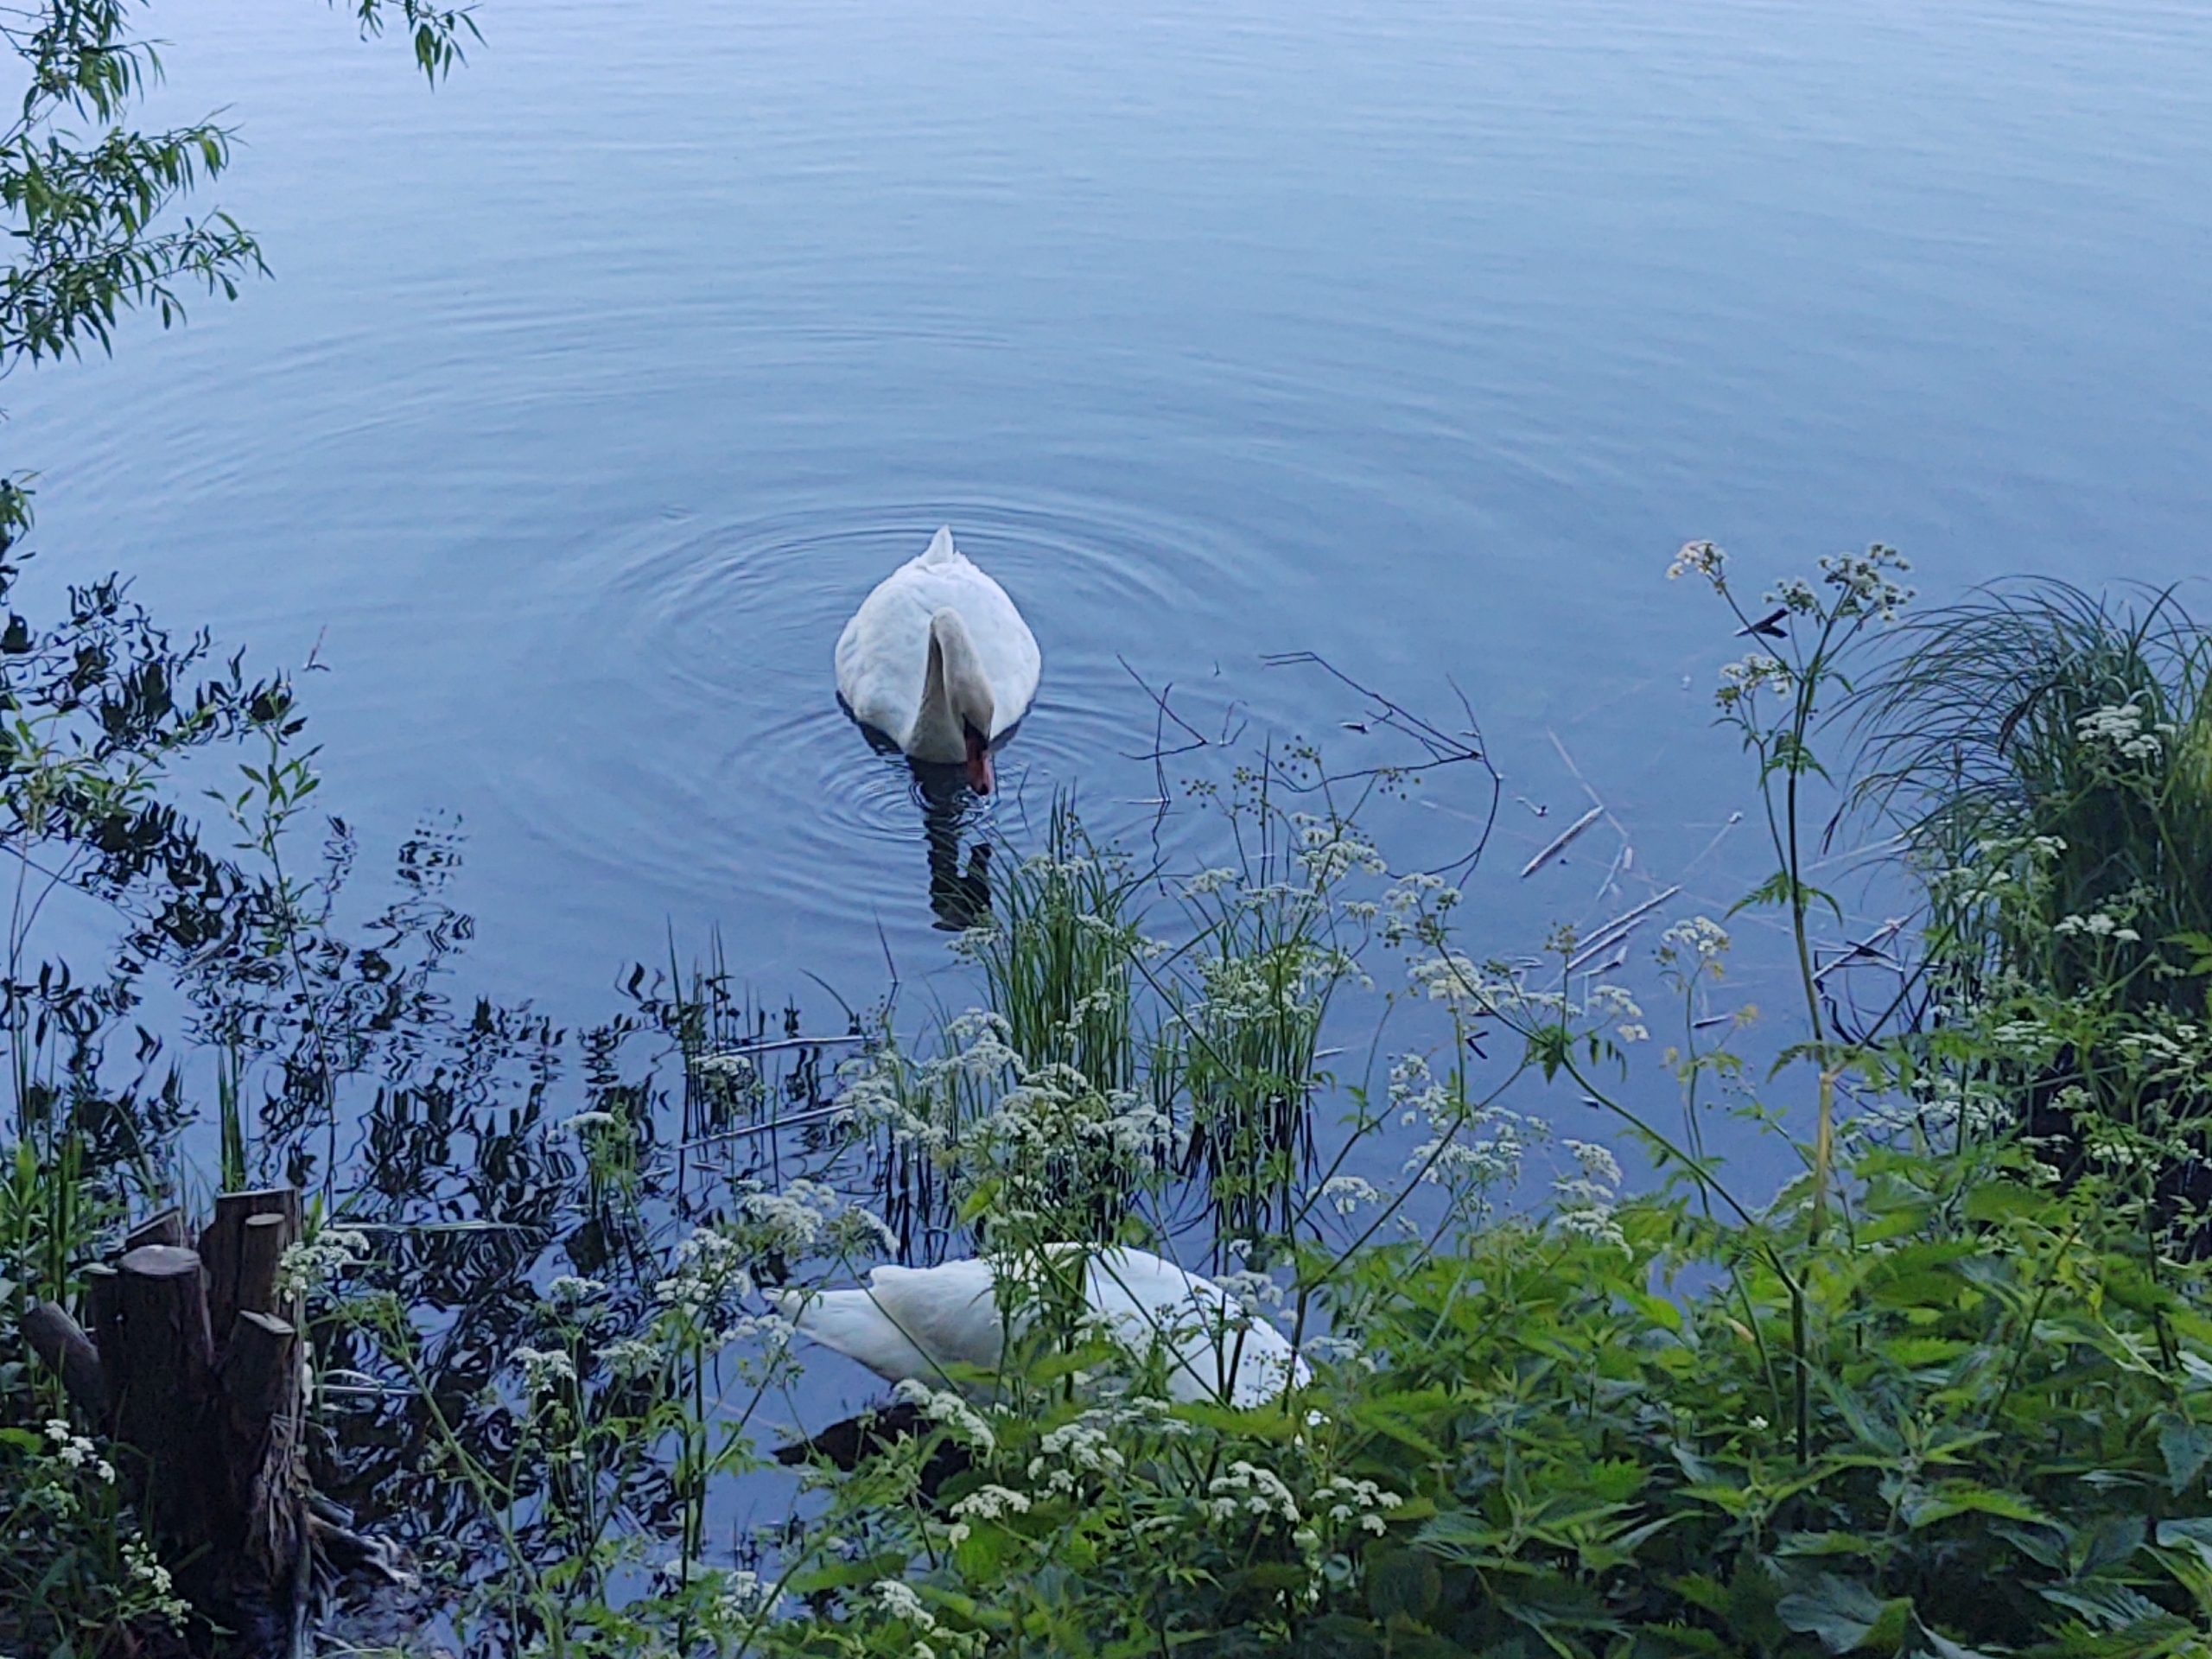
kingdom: Animalia
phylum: Chordata
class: Aves
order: Anseriformes
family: Anatidae
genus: Cygnus
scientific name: Cygnus olor
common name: Knopsvane
